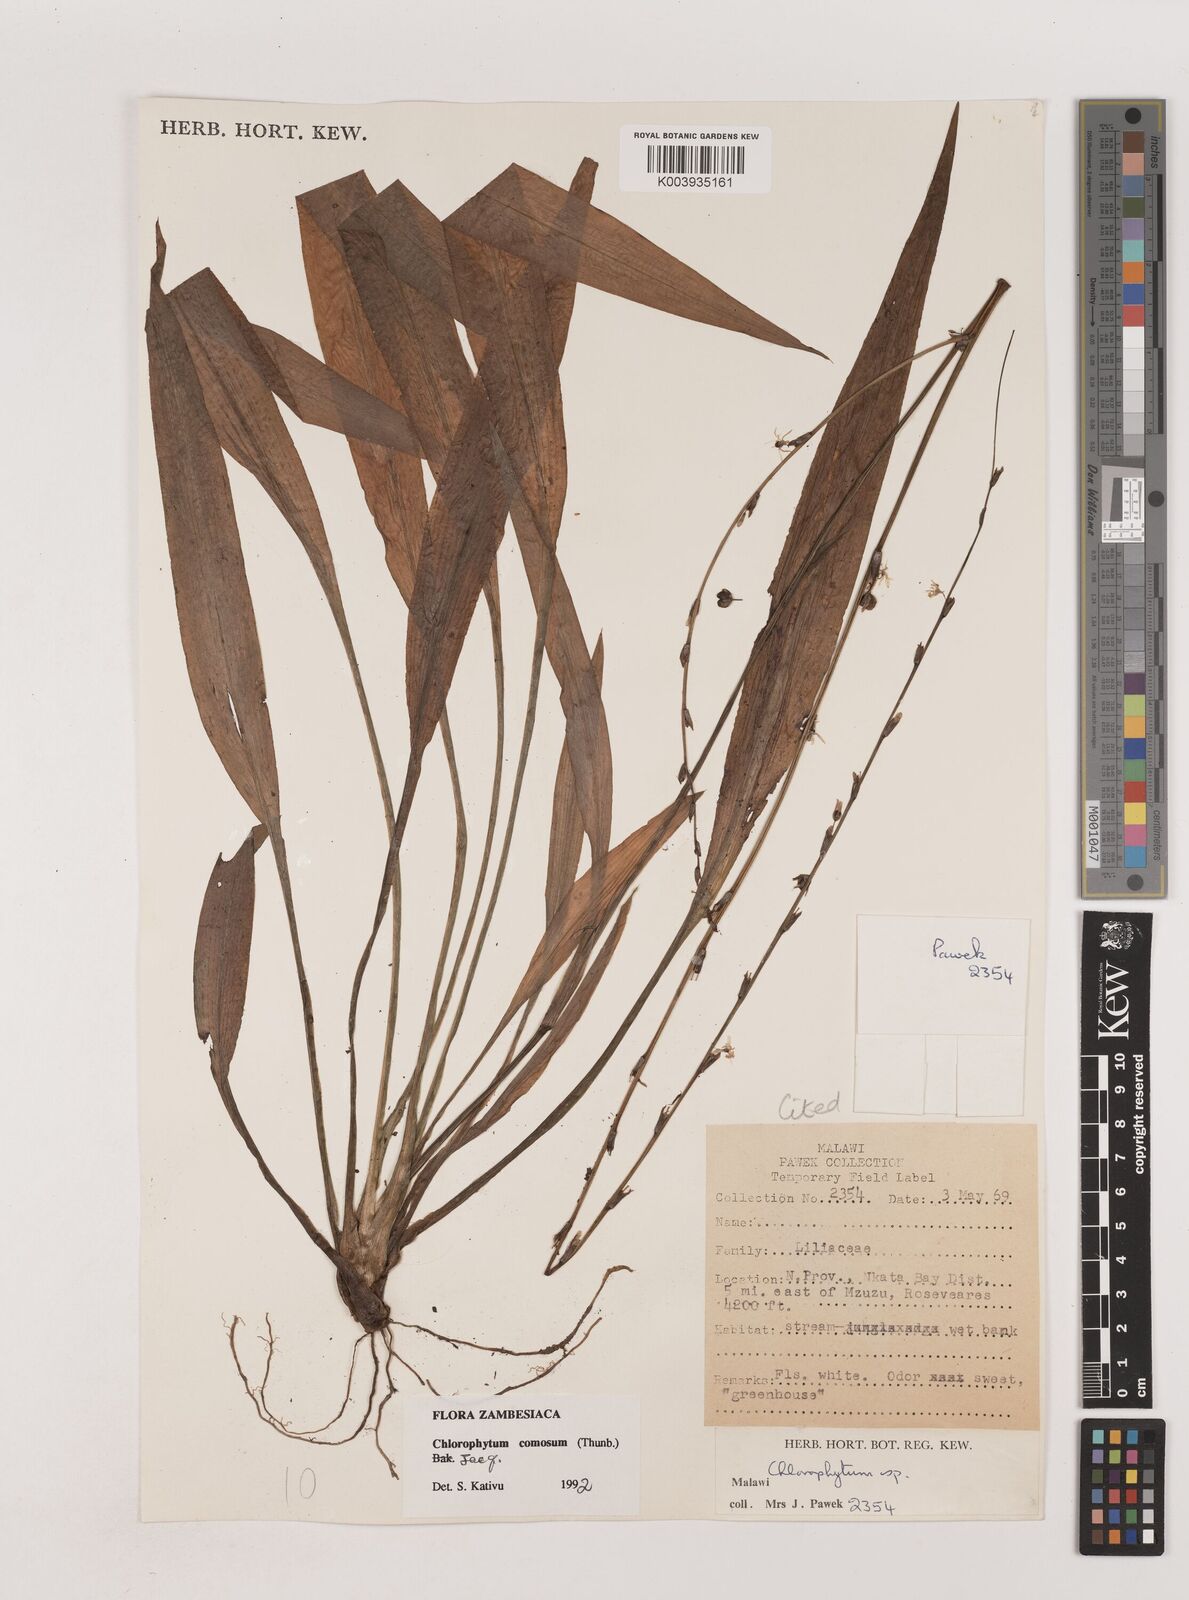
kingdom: Plantae
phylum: Tracheophyta
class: Liliopsida
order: Asparagales
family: Asparagaceae
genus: Chlorophytum
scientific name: Chlorophytum comosum
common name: Spider plant
